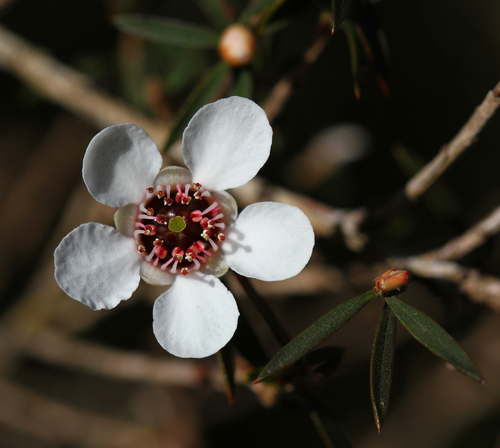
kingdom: Plantae
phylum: Tracheophyta
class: Magnoliopsida
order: Myrtales
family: Myrtaceae
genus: Leptospermum
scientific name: Leptospermum scoparium
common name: Broom tea-tree
